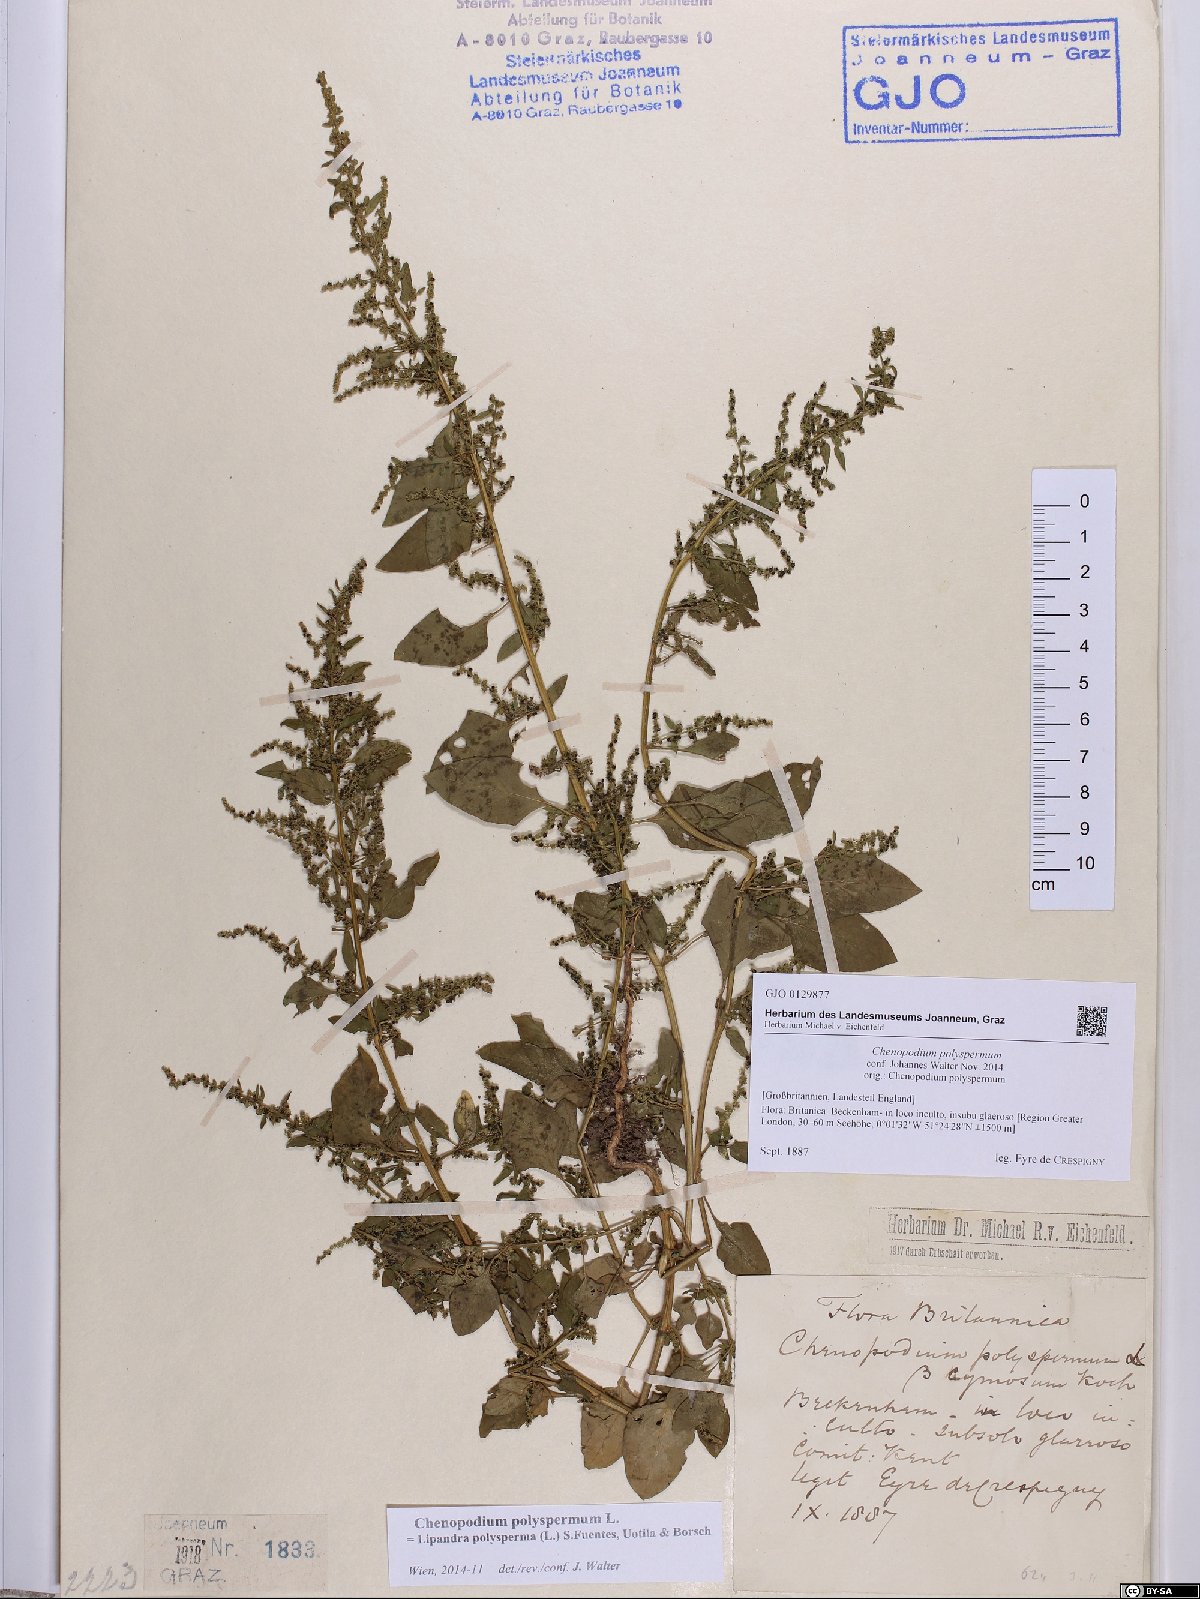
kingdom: Plantae
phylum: Tracheophyta
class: Magnoliopsida
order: Caryophyllales
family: Amaranthaceae
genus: Lipandra
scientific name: Lipandra polysperma
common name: Many-seed goosefoot
